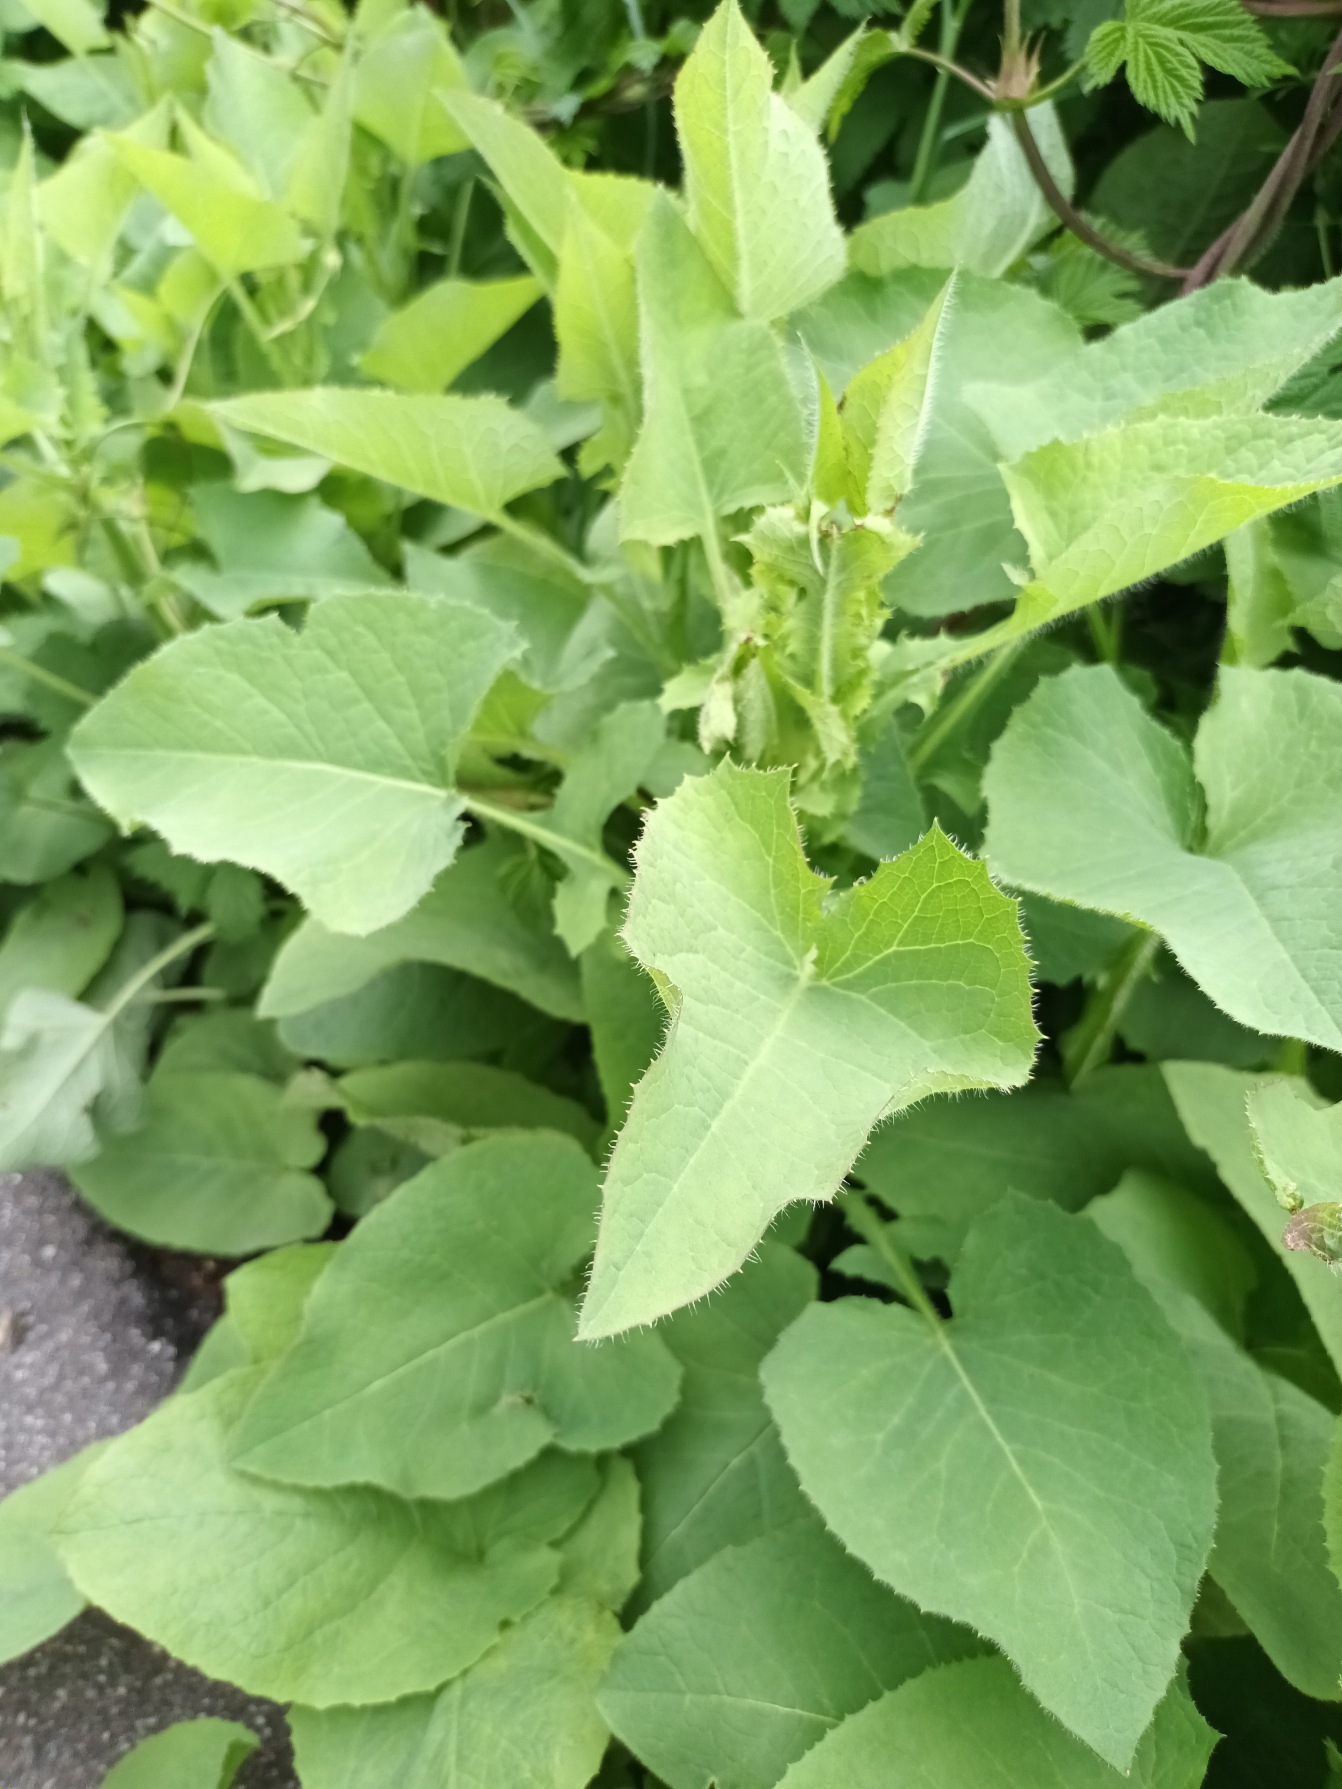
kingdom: Plantae
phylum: Tracheophyta
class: Magnoliopsida
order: Asterales
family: Asteraceae
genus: Lactuca
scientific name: Lactuca macrophylla
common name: Kæmpe-salat
